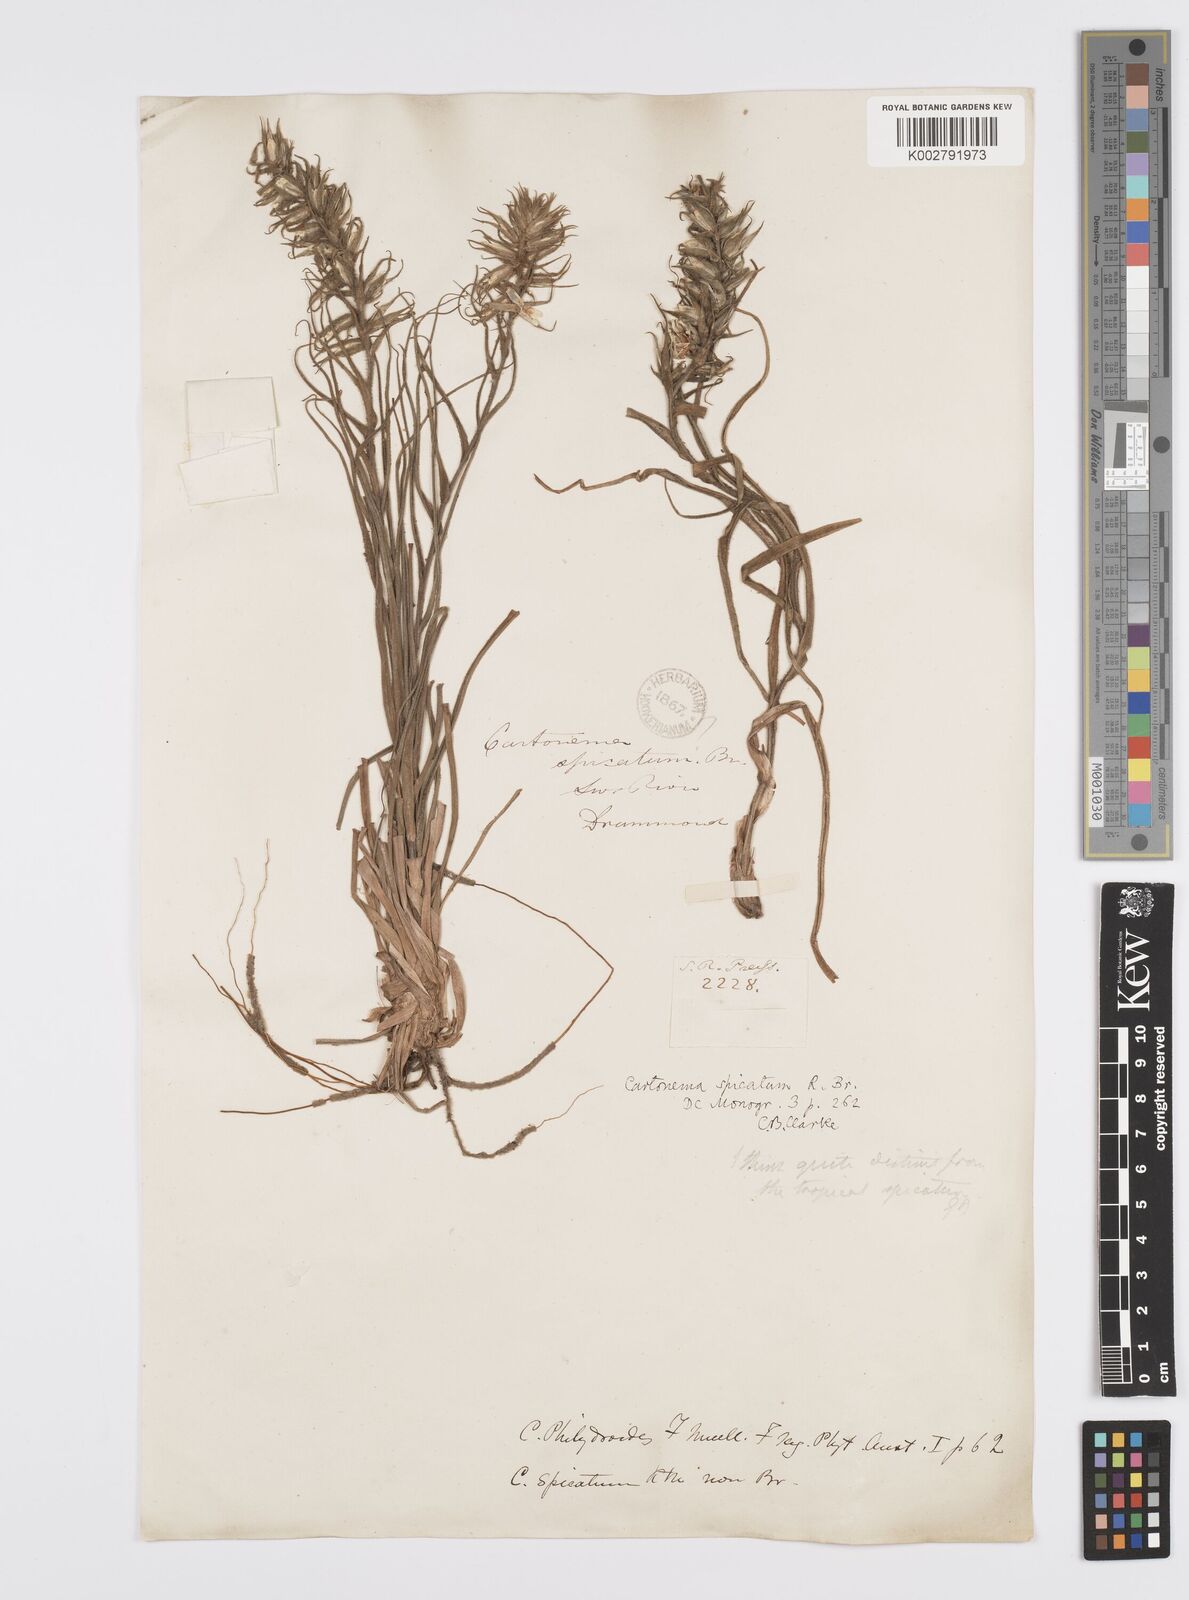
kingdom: Plantae
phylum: Tracheophyta
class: Liliopsida
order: Commelinales
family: Commelinaceae
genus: Cartonema
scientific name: Cartonema philydroides
